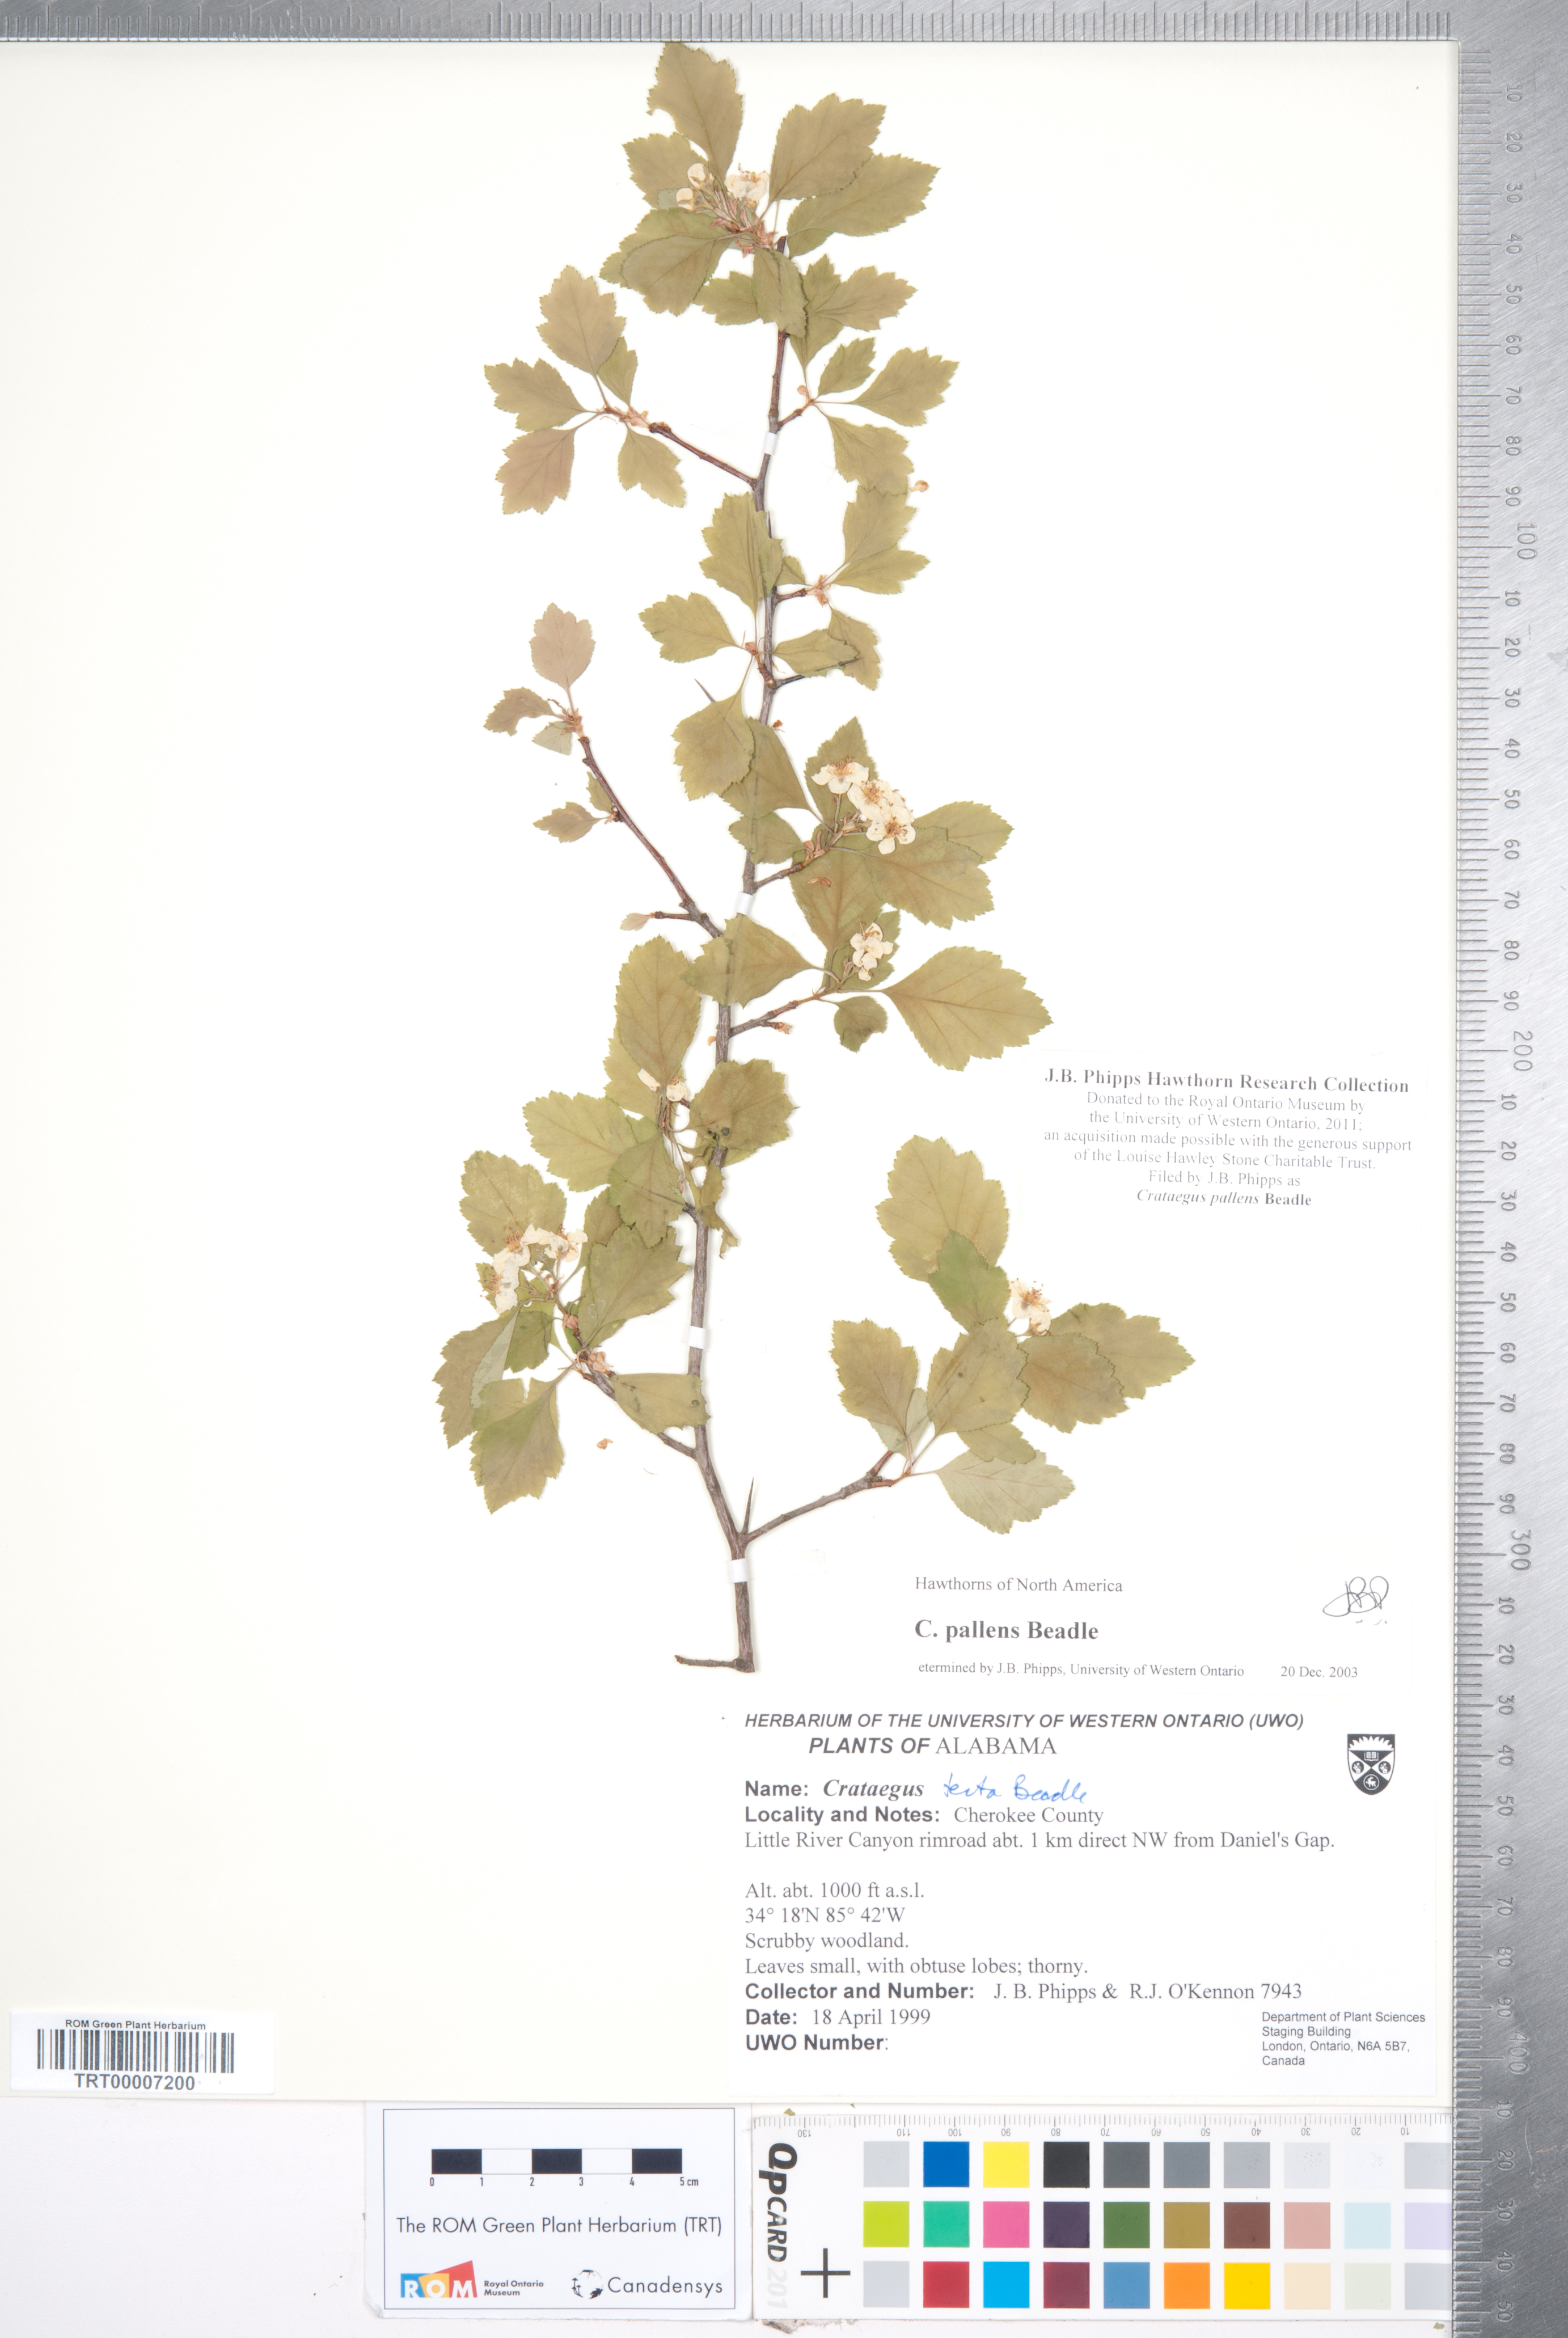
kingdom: Plantae
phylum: Tracheophyta
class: Magnoliopsida
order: Rosales
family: Rosaceae
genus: Crataegus
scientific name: Crataegus pulcherrima
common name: Beautiful hawthorn
